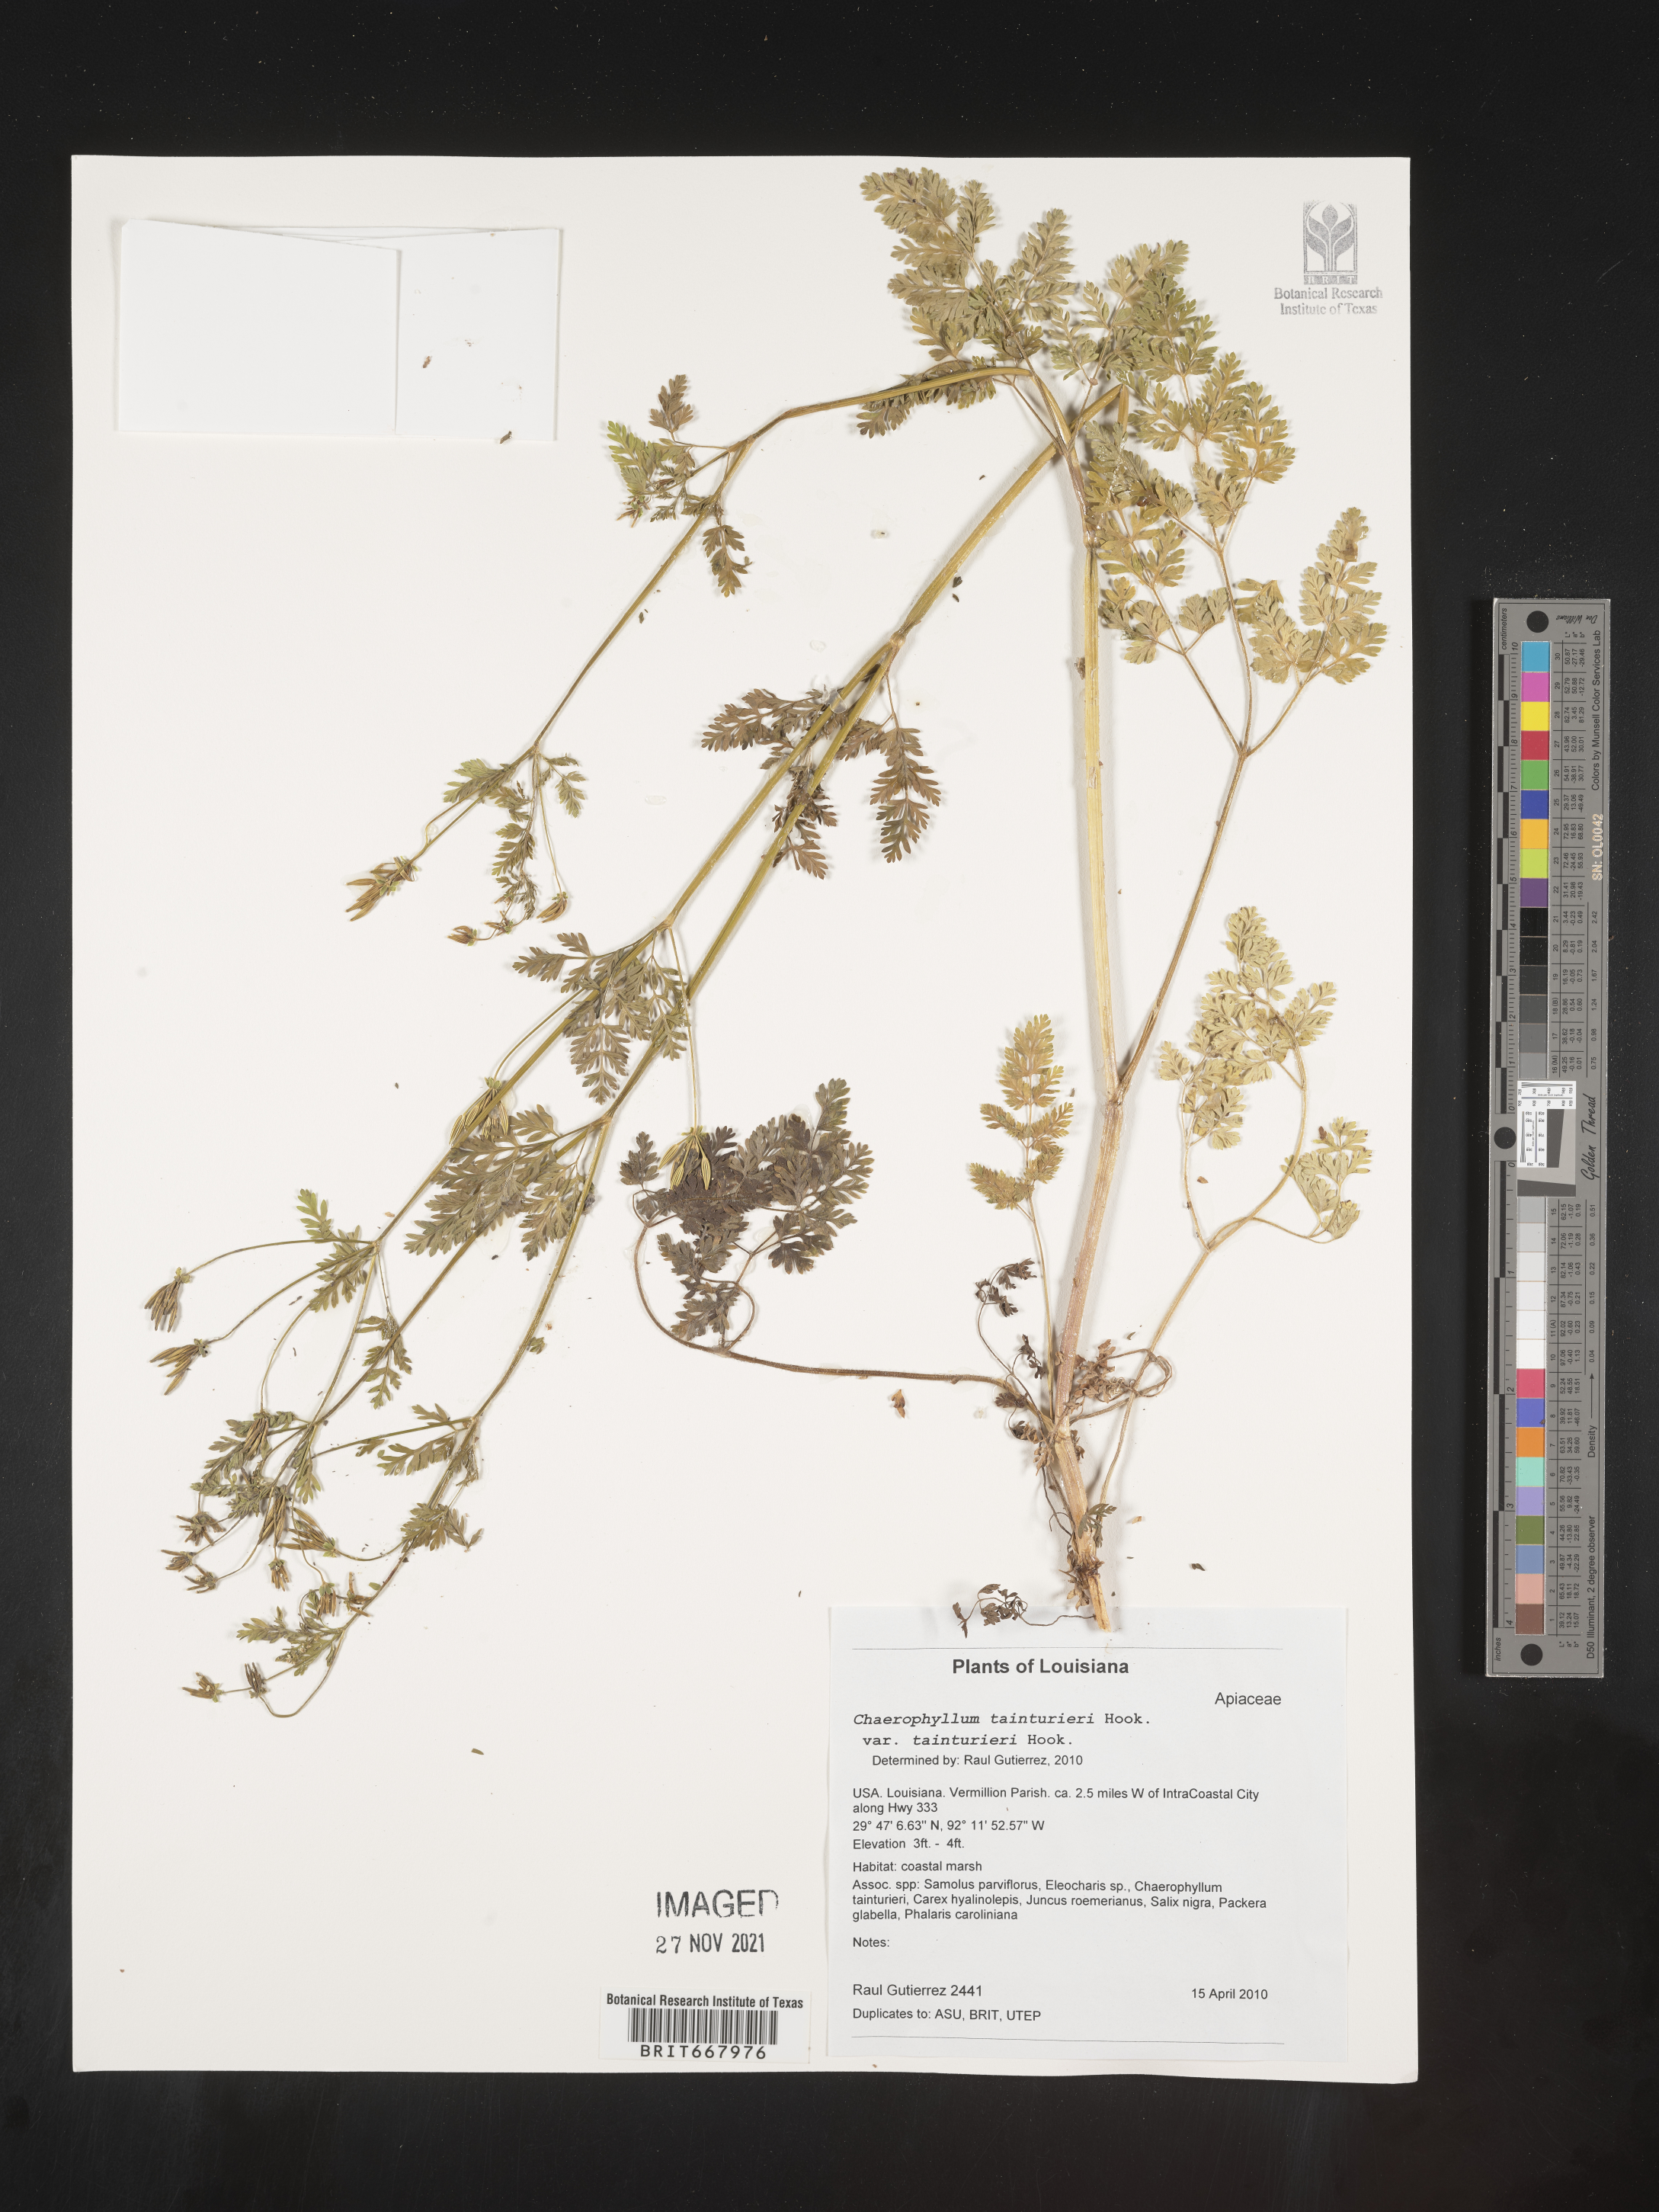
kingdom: Plantae
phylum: Tracheophyta
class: Magnoliopsida
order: Apiales
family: Apiaceae
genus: Chaerophyllum
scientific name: Chaerophyllum tainturieri
